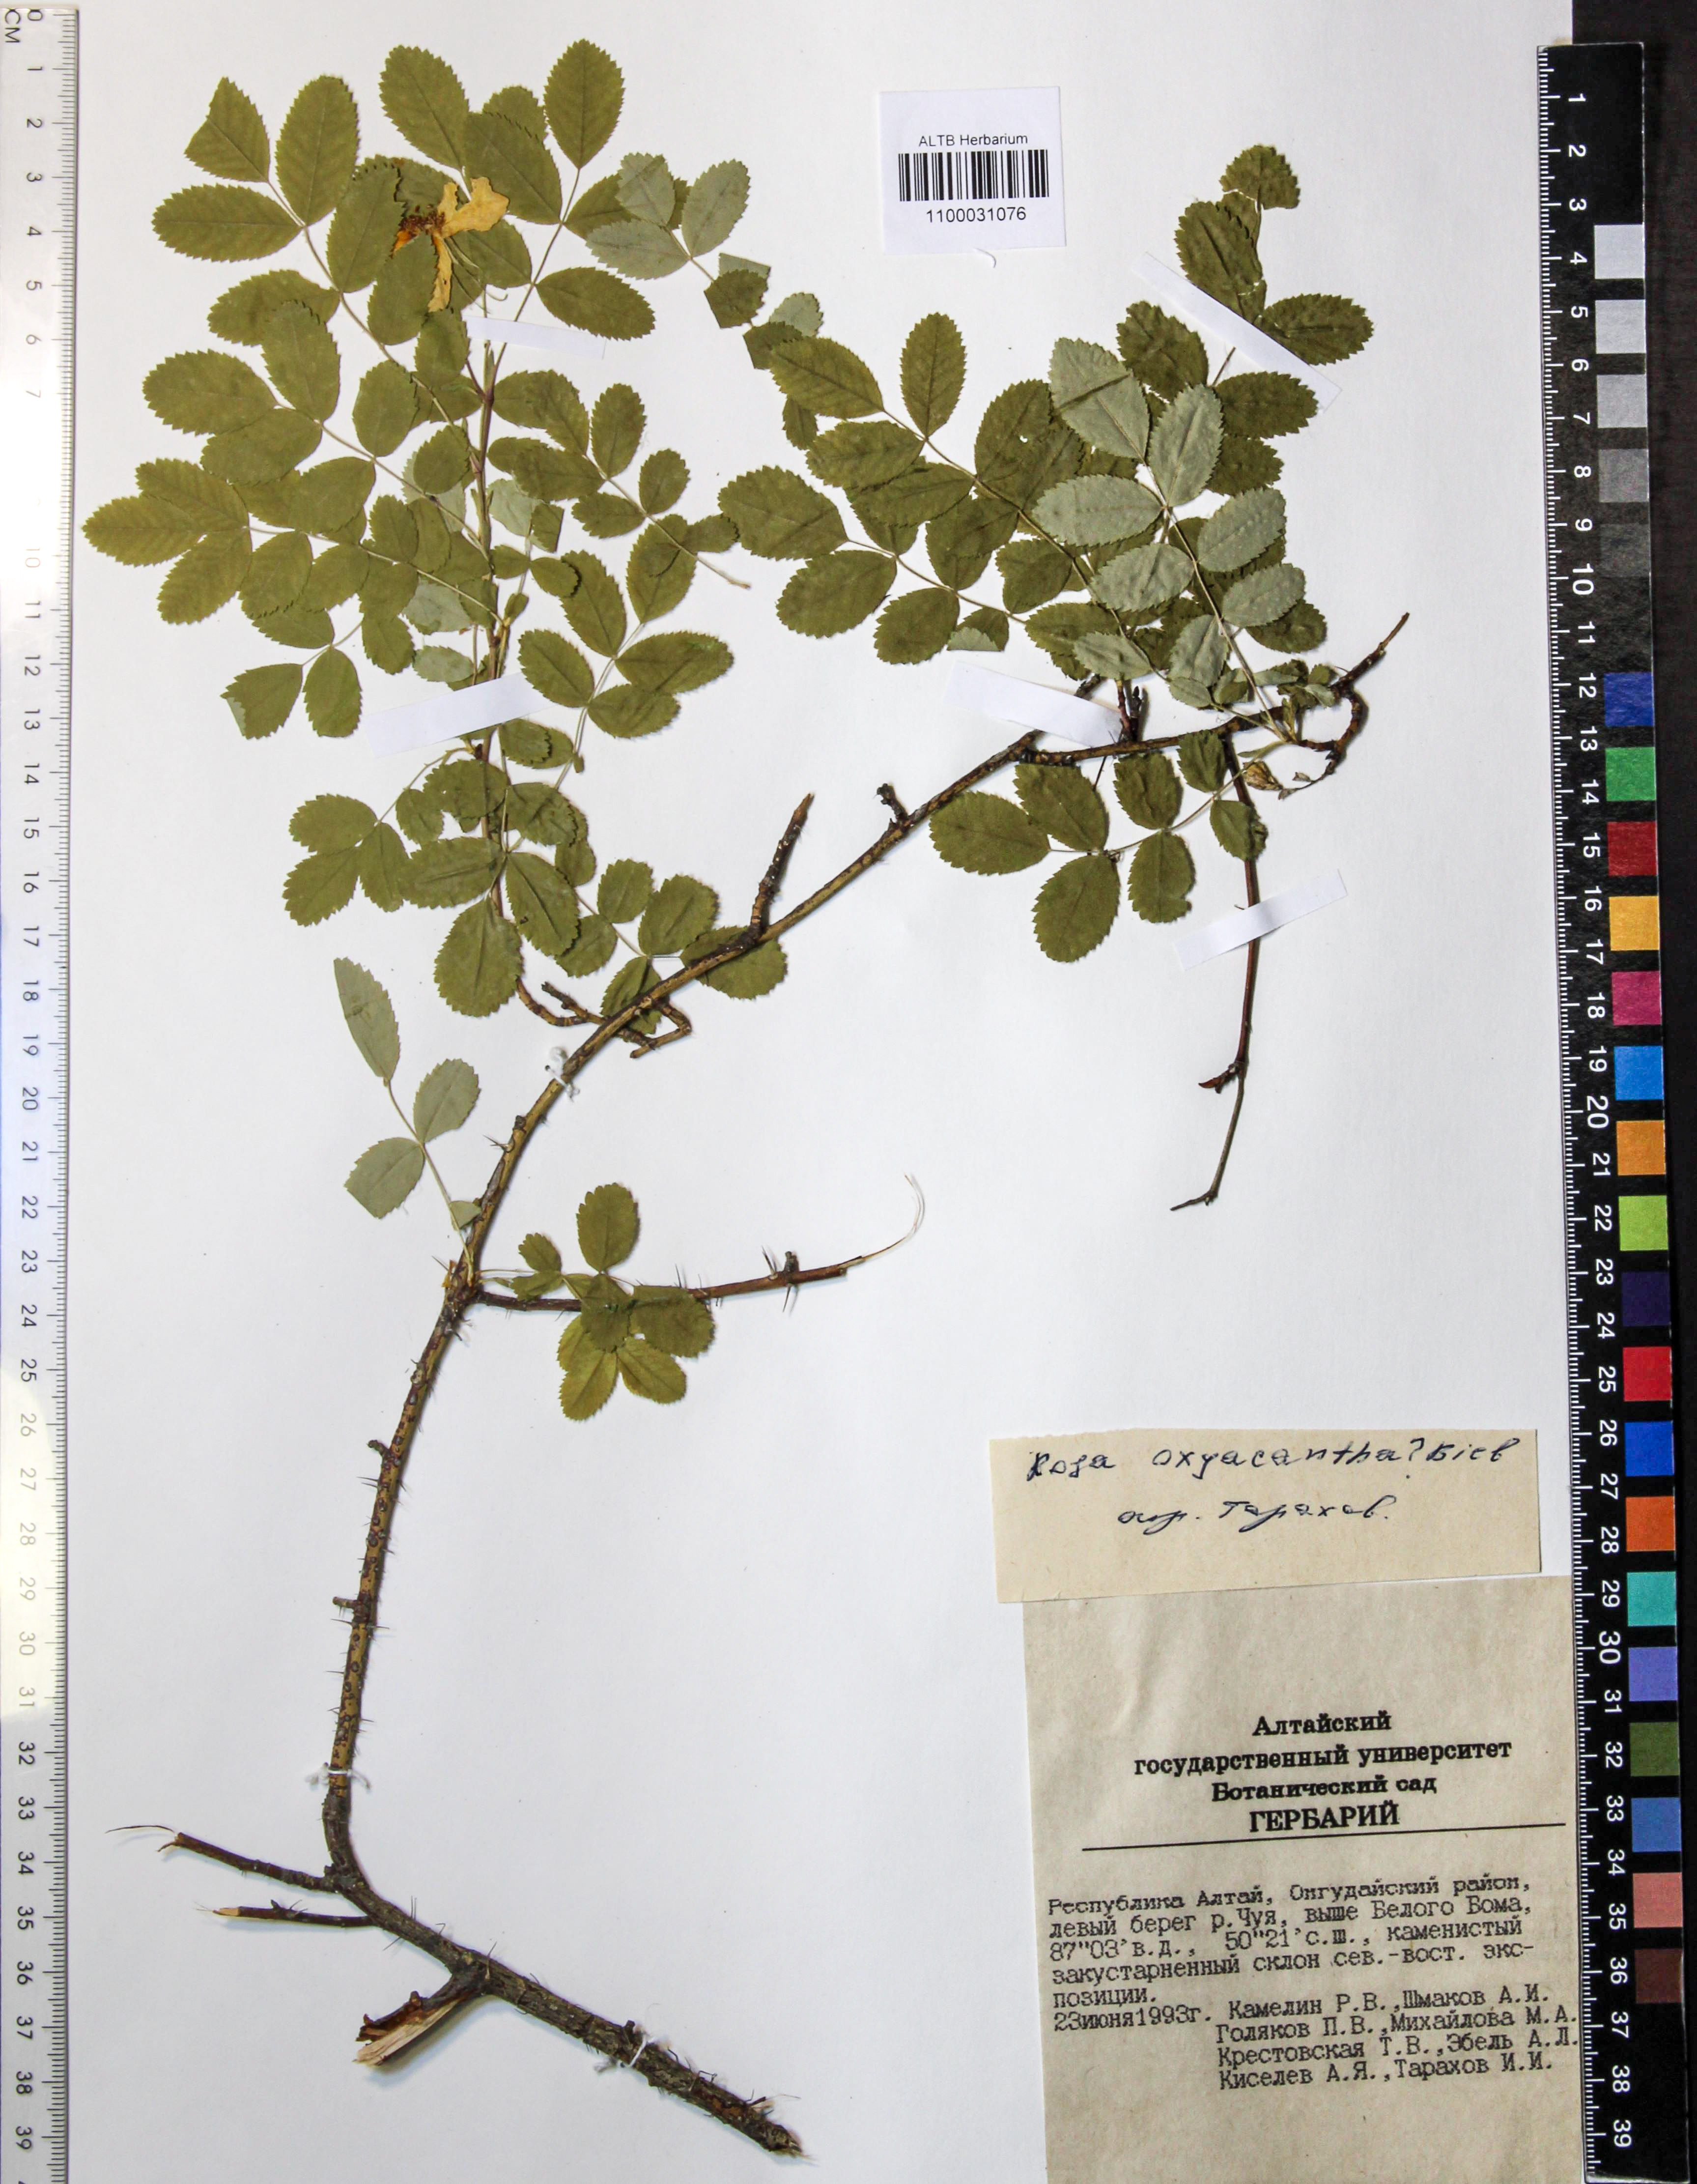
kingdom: Plantae
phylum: Tracheophyta
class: Magnoliopsida
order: Rosales
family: Rosaceae
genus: Rosa
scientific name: Rosa oxyacantha
